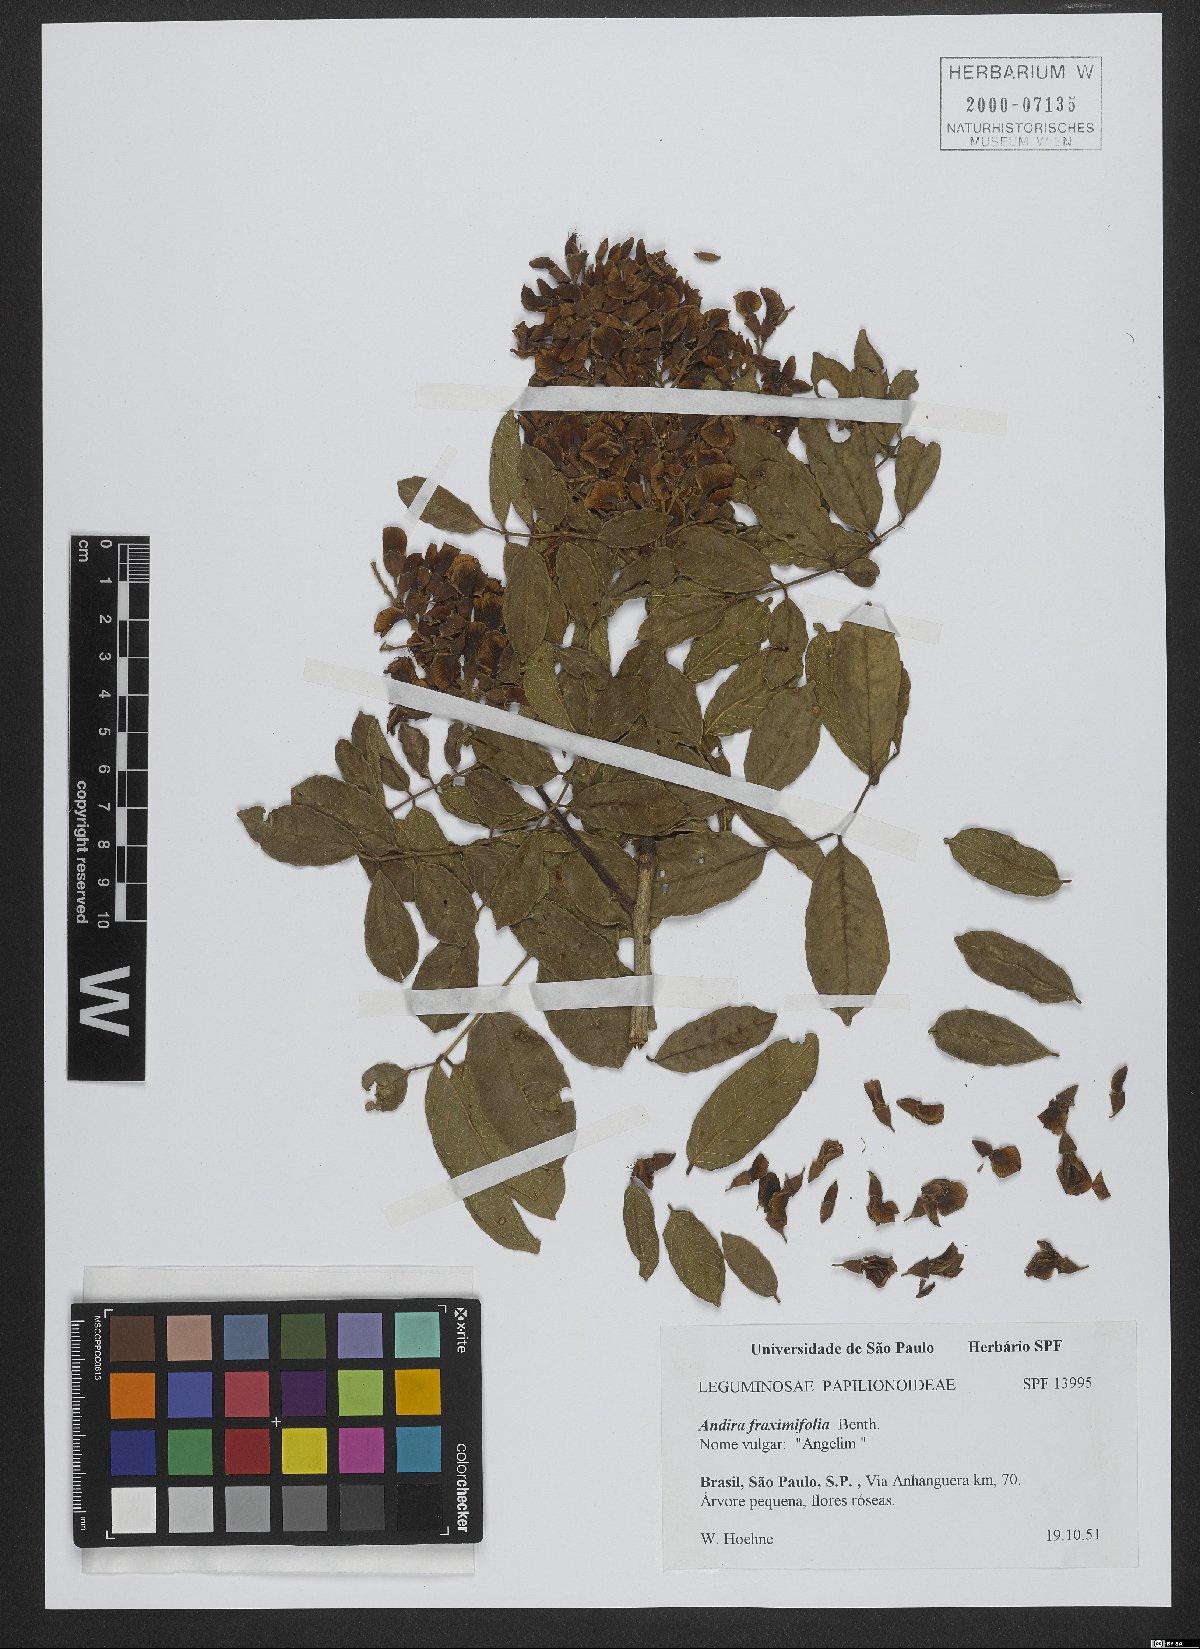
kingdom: Plantae
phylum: Tracheophyta
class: Magnoliopsida
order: Fabales
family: Fabaceae
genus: Andira
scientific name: Andira fraxinifolia
